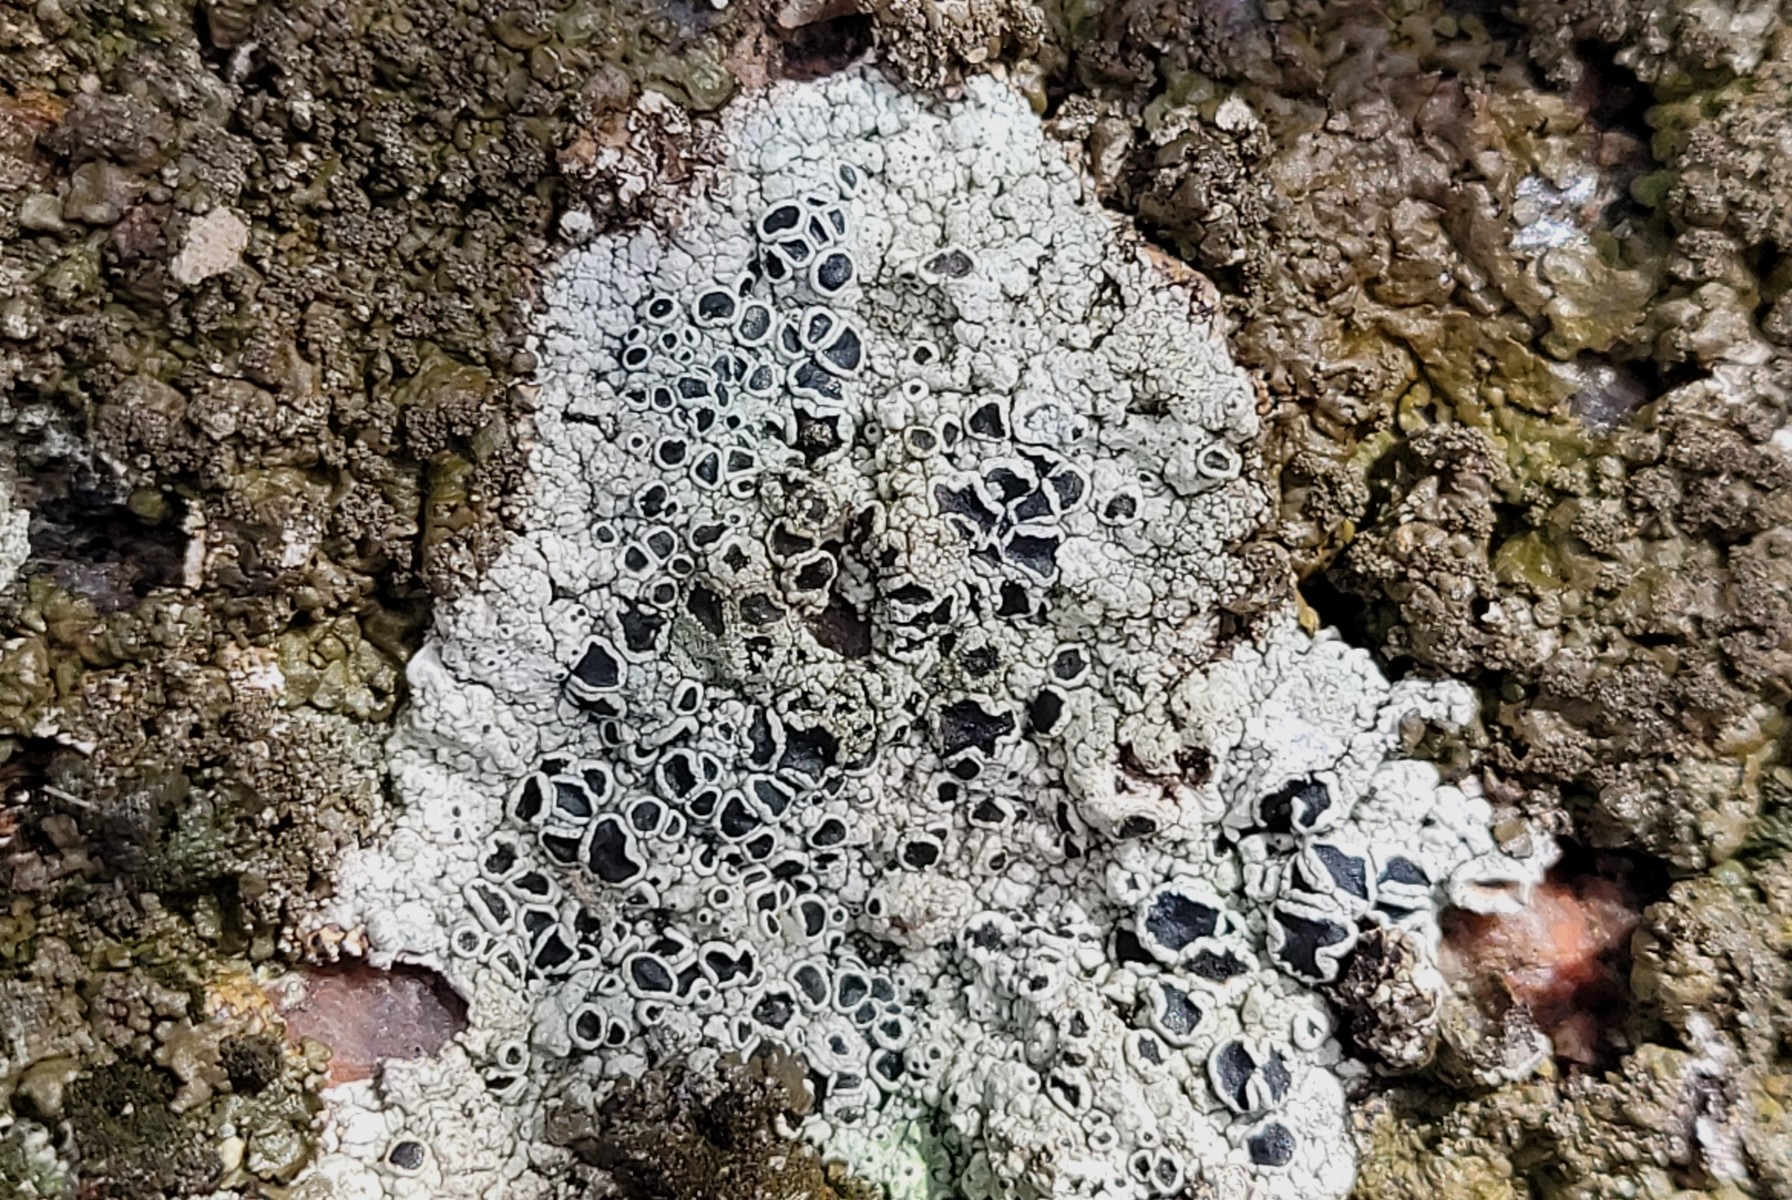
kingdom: Fungi
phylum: Ascomycota
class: Lecanoromycetes
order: Lecanorales
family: Tephromelataceae
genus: Tephromela
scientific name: Tephromela atra
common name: sortfrugtet kantskivelav
